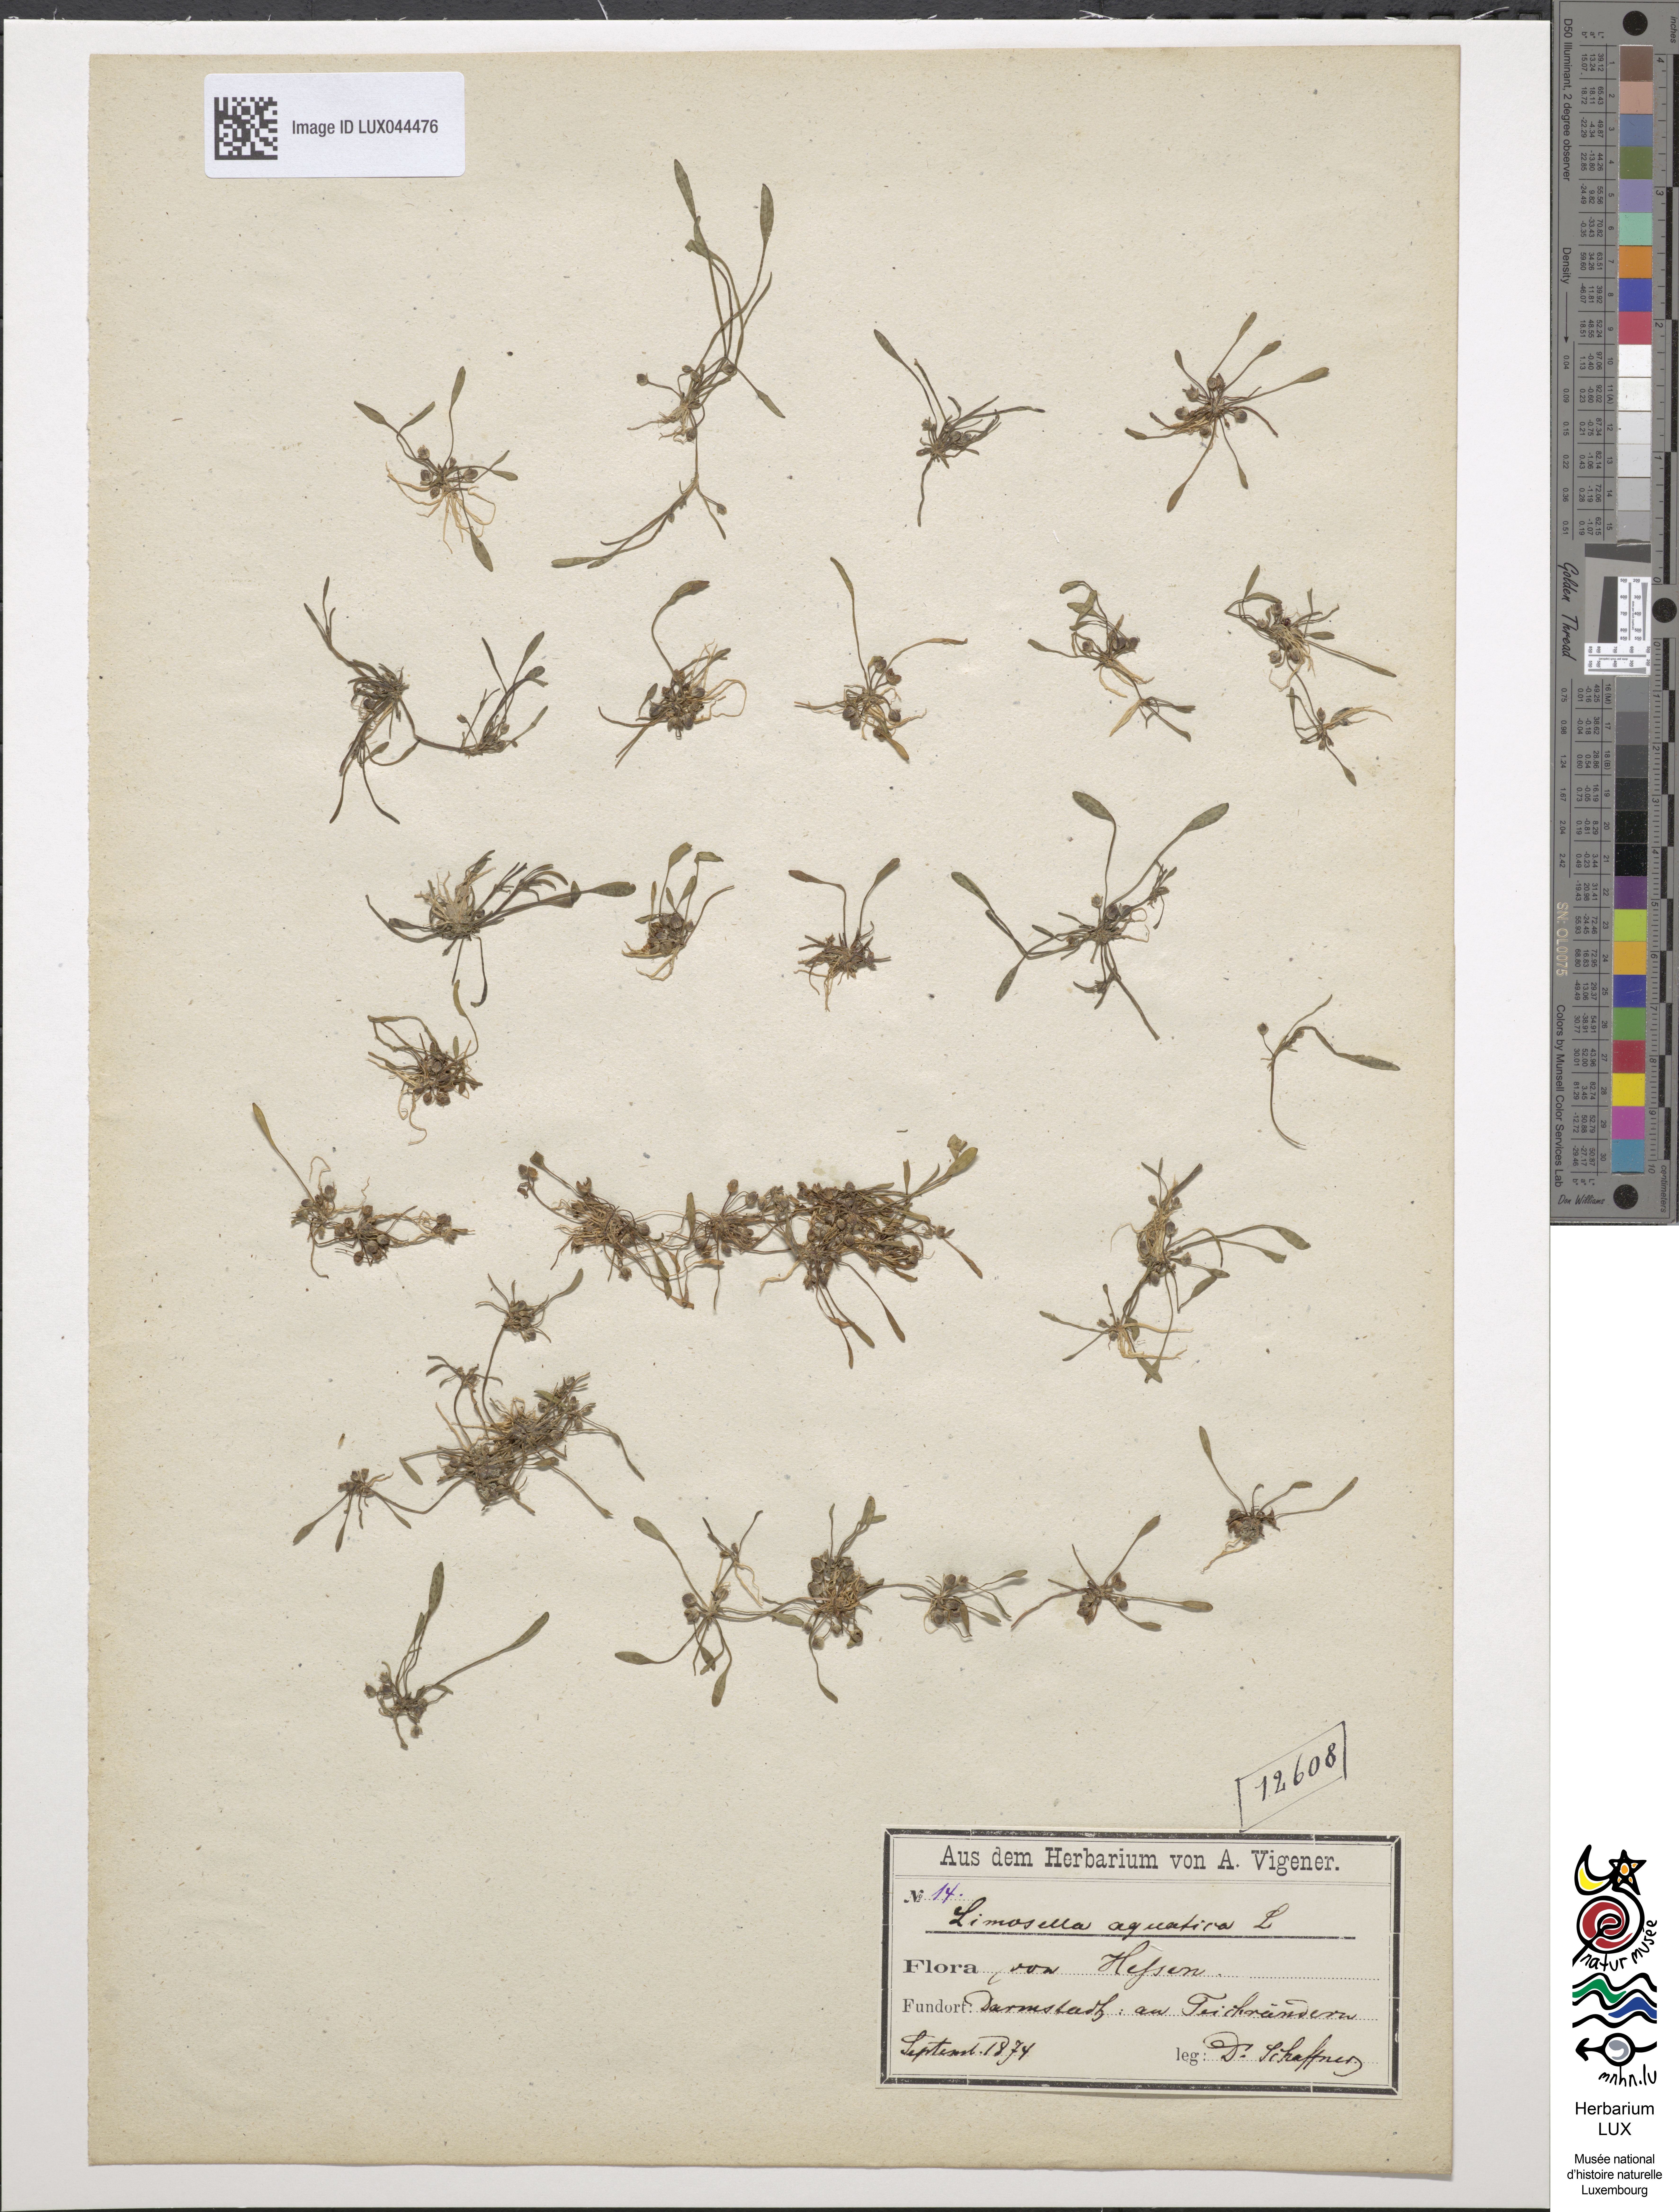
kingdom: Plantae
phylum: Tracheophyta
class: Magnoliopsida
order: Lamiales
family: Scrophulariaceae
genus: Limosella
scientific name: Limosella aquatica
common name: Mudwort
